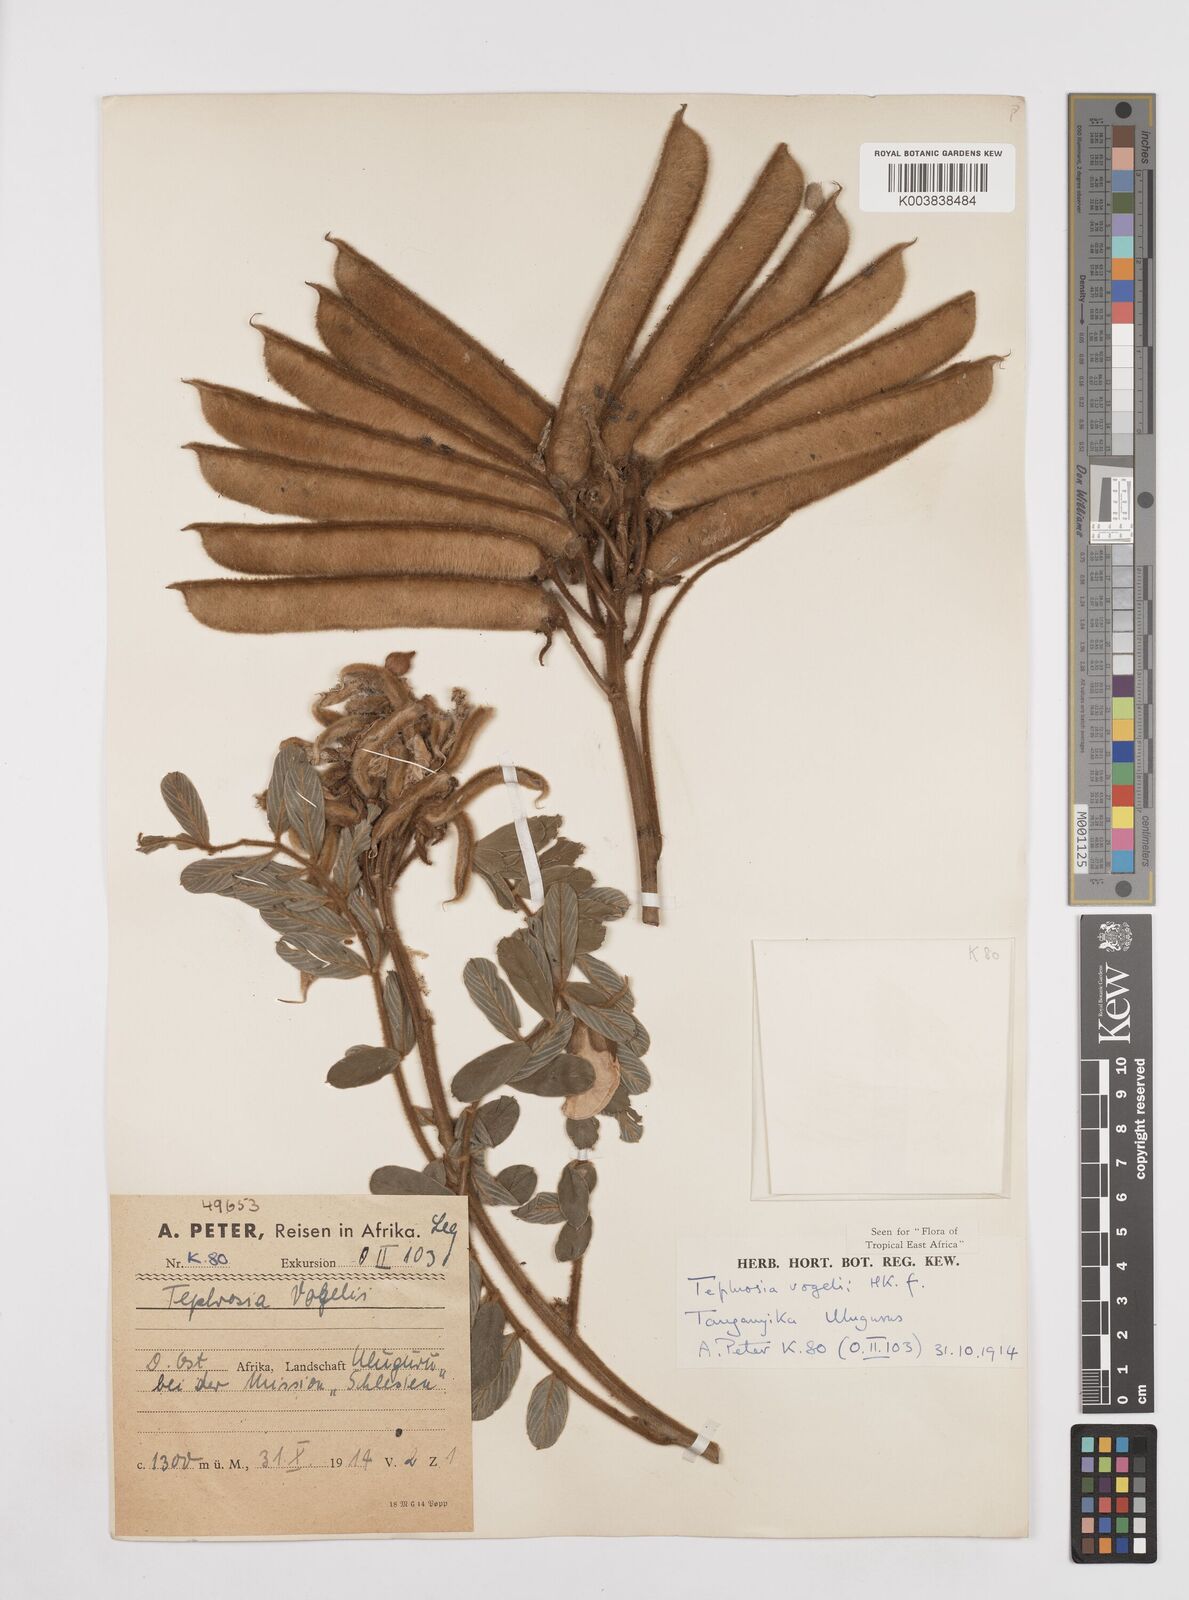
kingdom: Plantae
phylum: Tracheophyta
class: Magnoliopsida
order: Fabales
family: Fabaceae
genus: Tephrosia
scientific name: Tephrosia vogelii
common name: Vogel tephrosia
